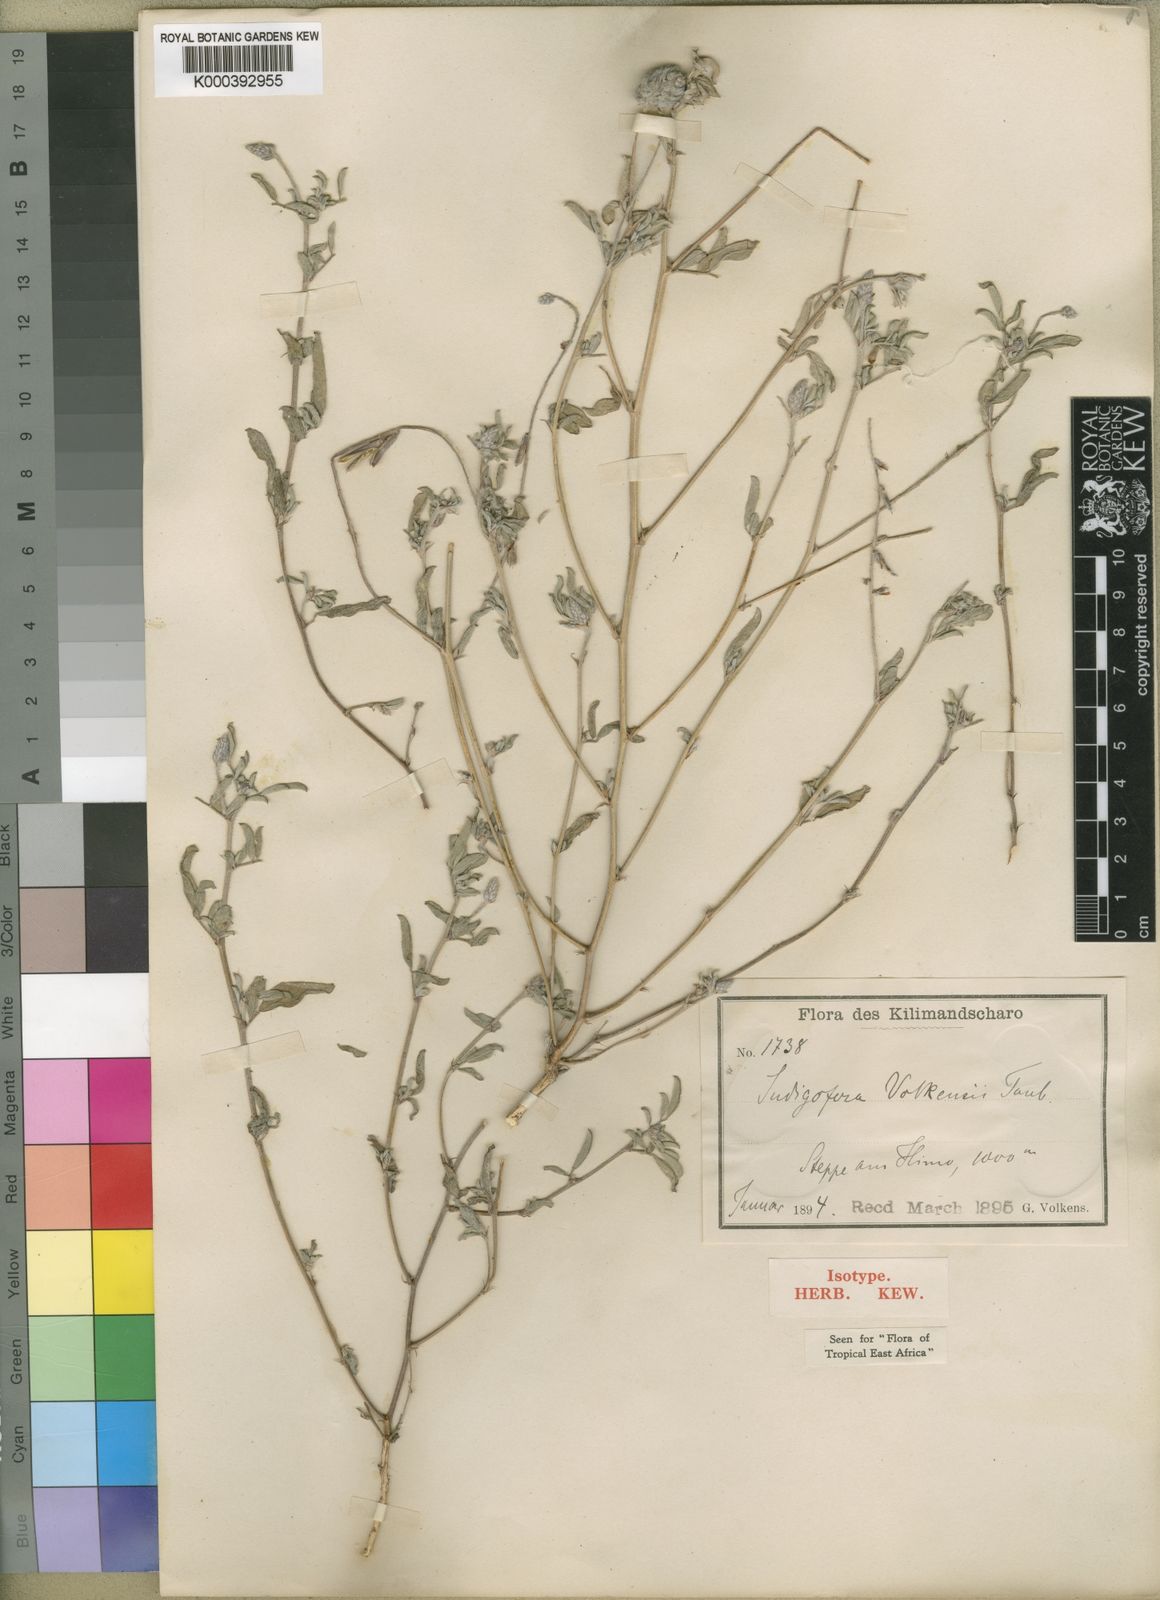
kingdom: Plantae
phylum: Tracheophyta
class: Magnoliopsida
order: Fabales
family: Fabaceae
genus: Indigofera
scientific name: Indigofera volkensii
